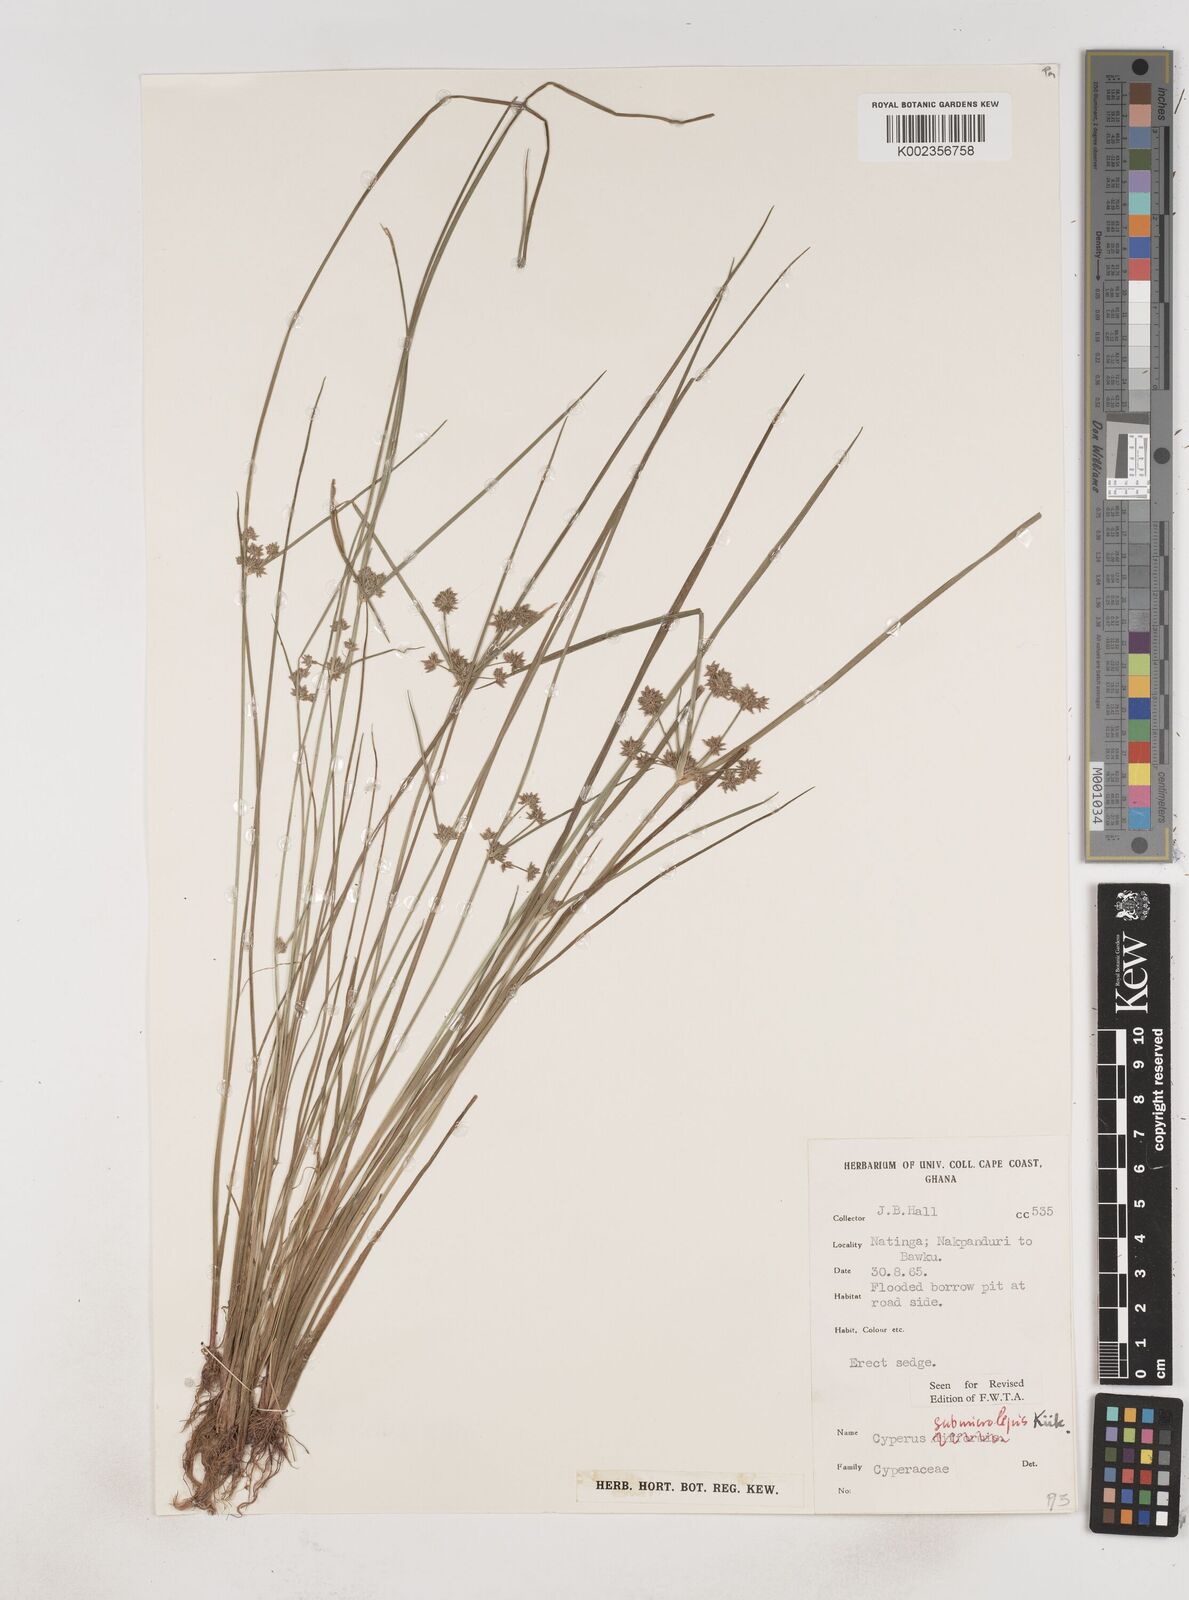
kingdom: Plantae
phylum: Tracheophyta
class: Liliopsida
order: Poales
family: Cyperaceae
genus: Cyperus
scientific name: Cyperus submicrolepis
